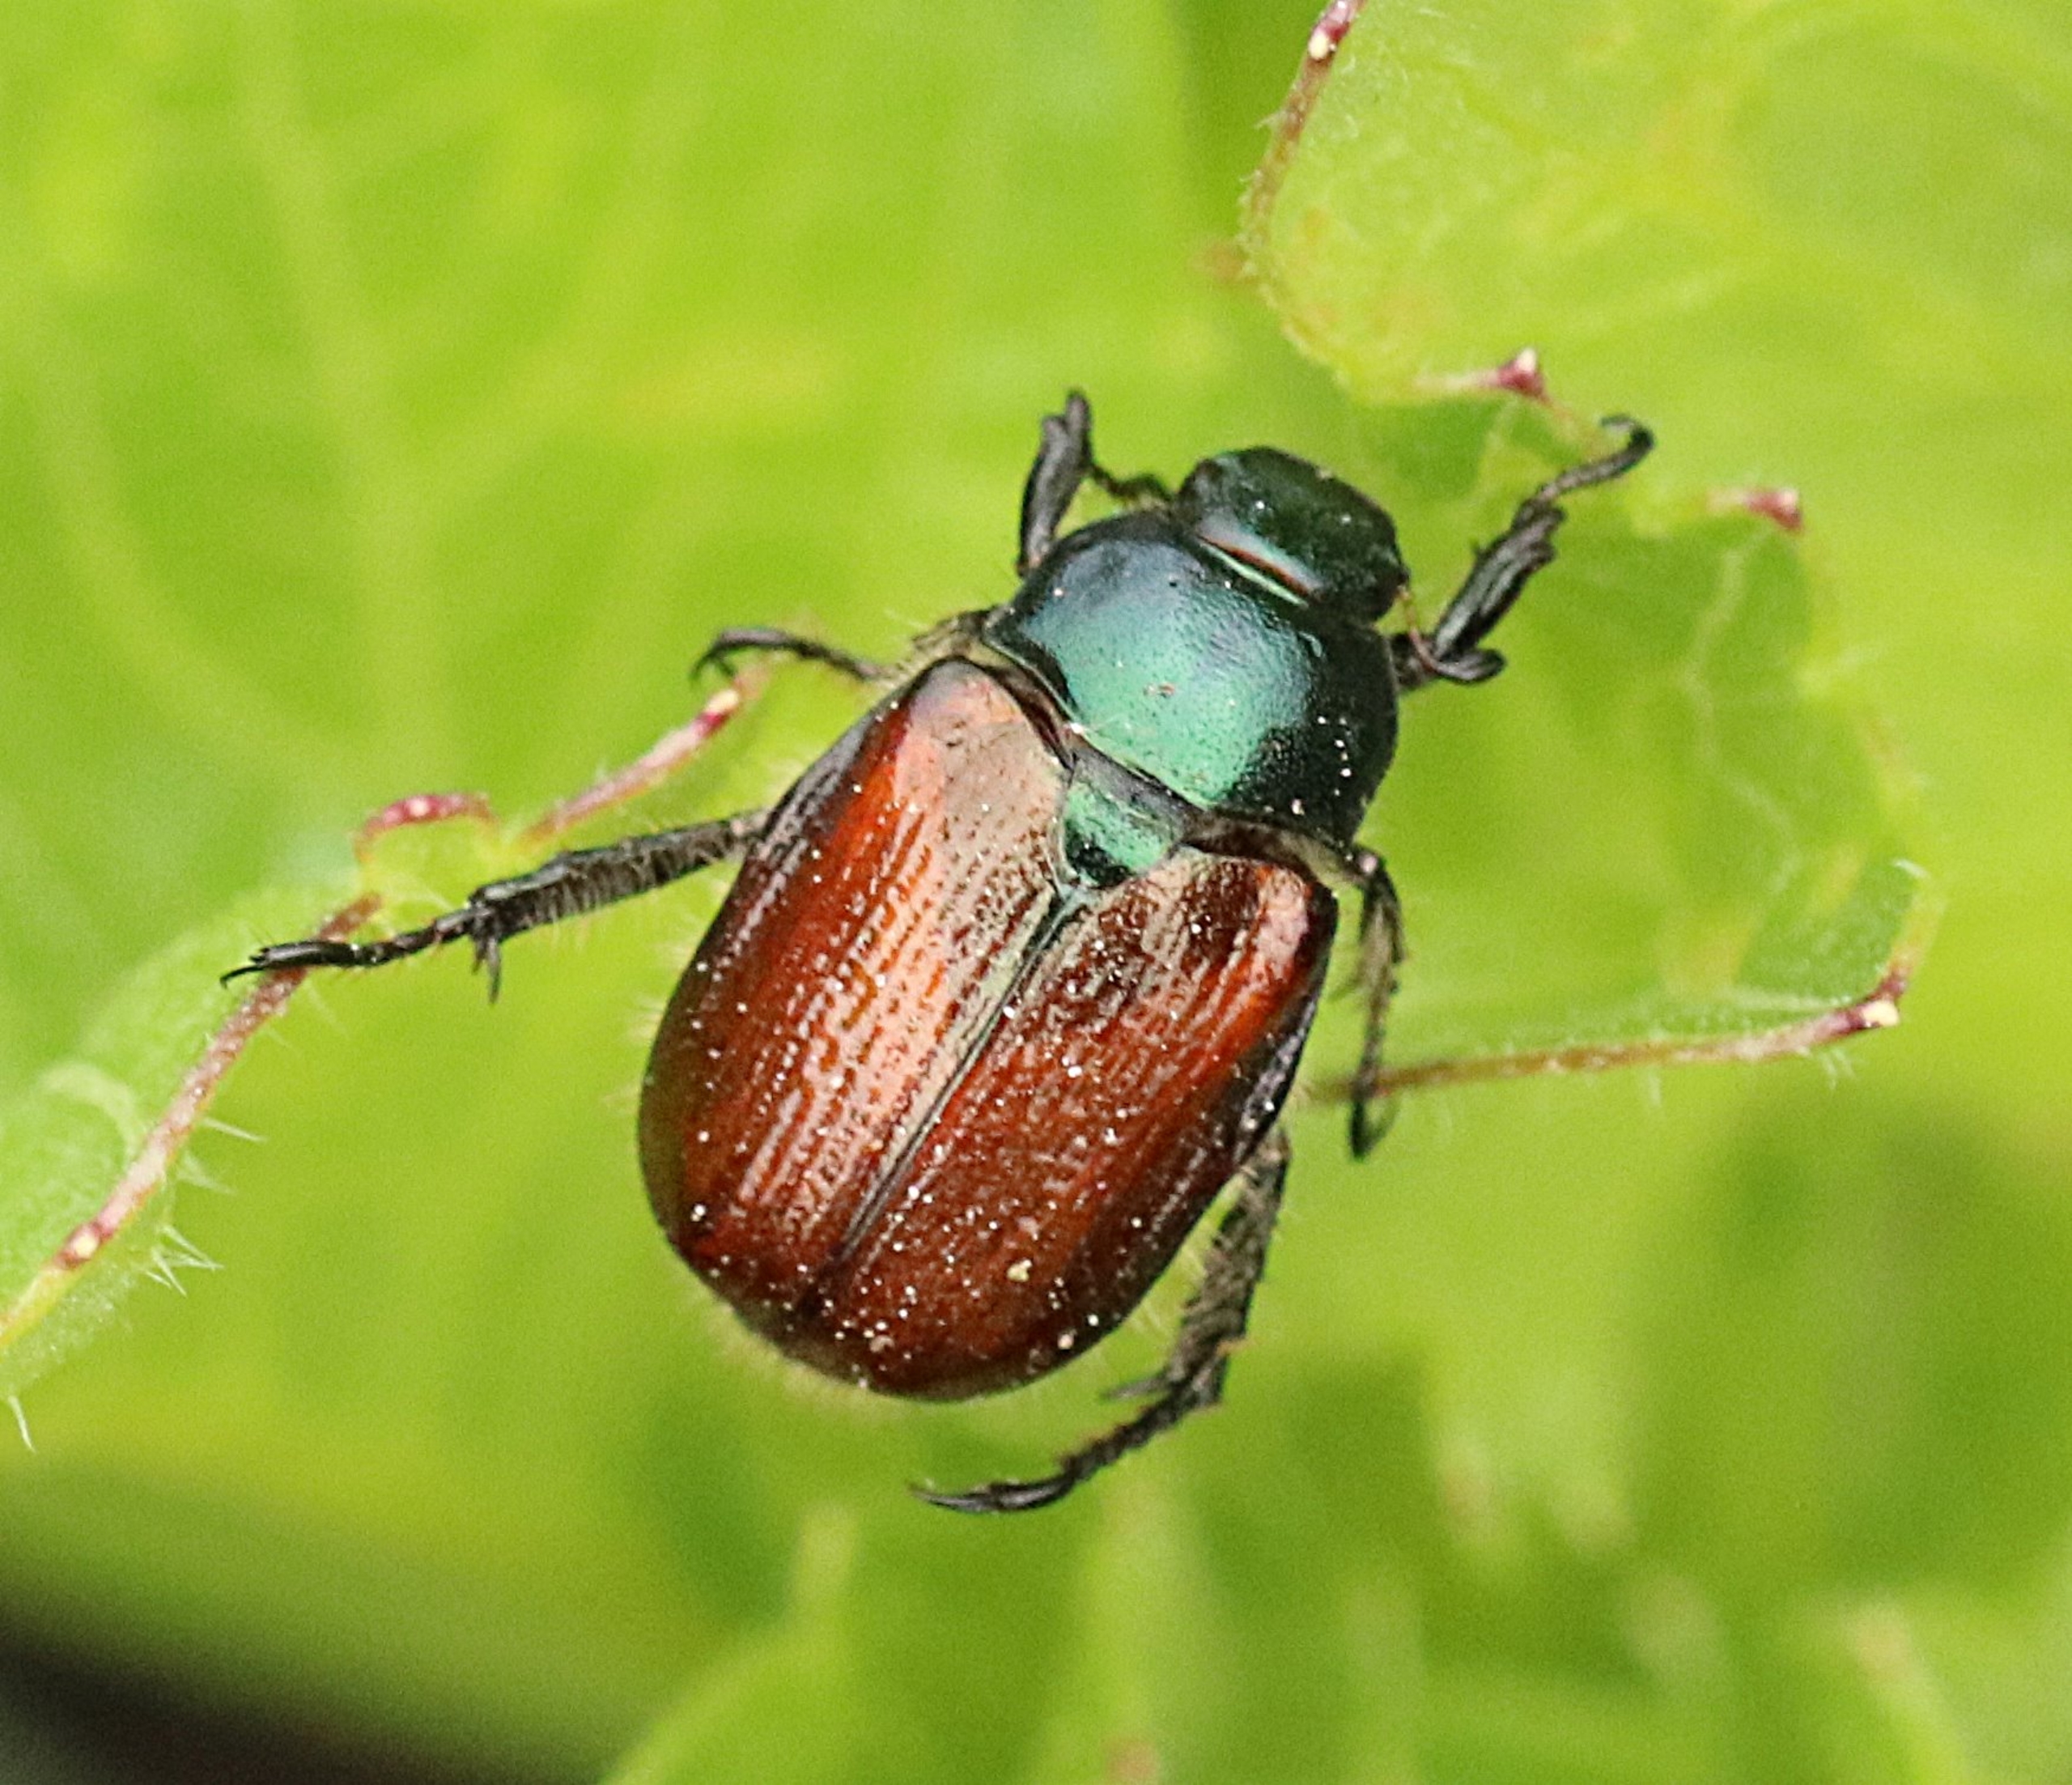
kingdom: Animalia
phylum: Arthropoda
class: Insecta
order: Coleoptera
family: Scarabaeidae
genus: Phyllopertha
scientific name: Phyllopertha horticola
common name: Gåsebille
